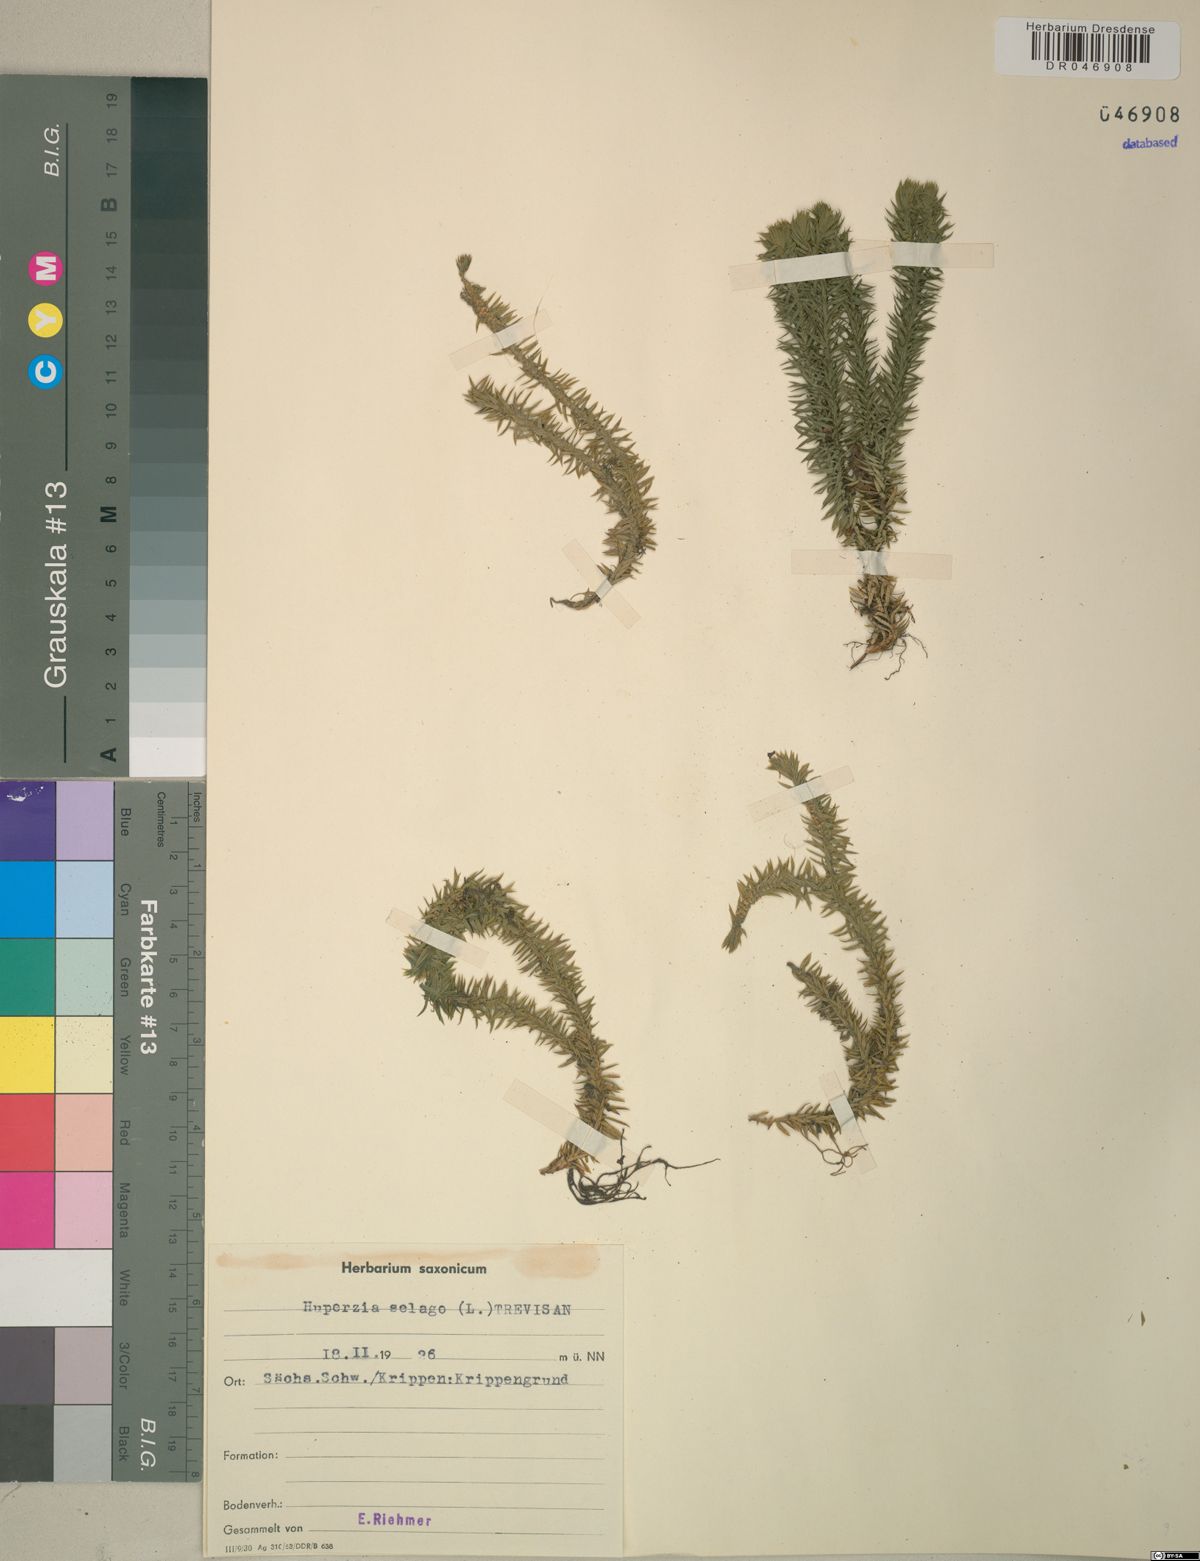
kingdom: Plantae
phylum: Tracheophyta
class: Lycopodiopsida
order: Lycopodiales
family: Lycopodiaceae
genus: Huperzia
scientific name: Huperzia selago
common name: Northern firmoss
